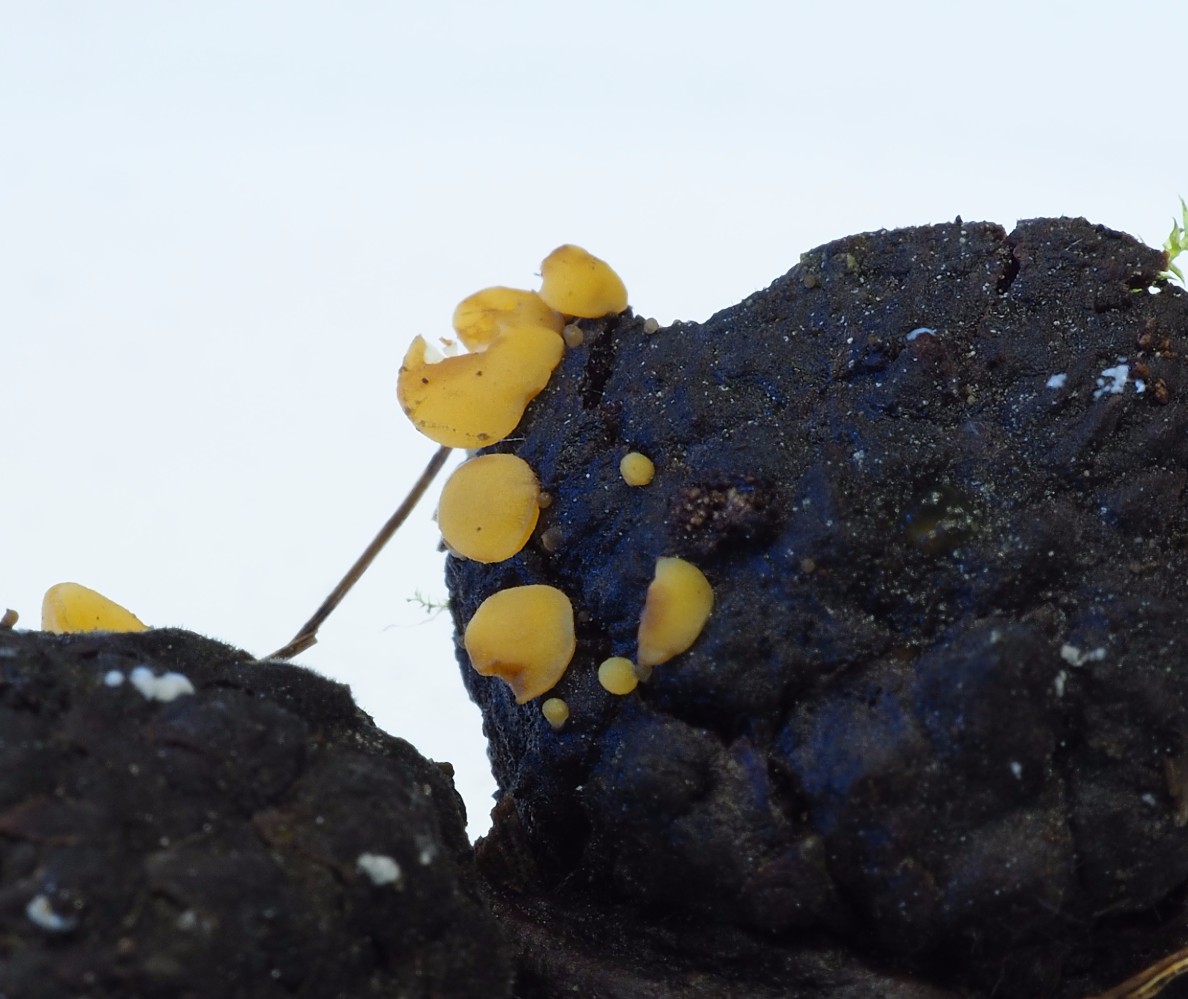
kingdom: Fungi
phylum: Ascomycota
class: Leotiomycetes
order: Helotiales
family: Helotiaceae
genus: Hymenoscyphus
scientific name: Hymenoscyphus
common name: stilkskive
